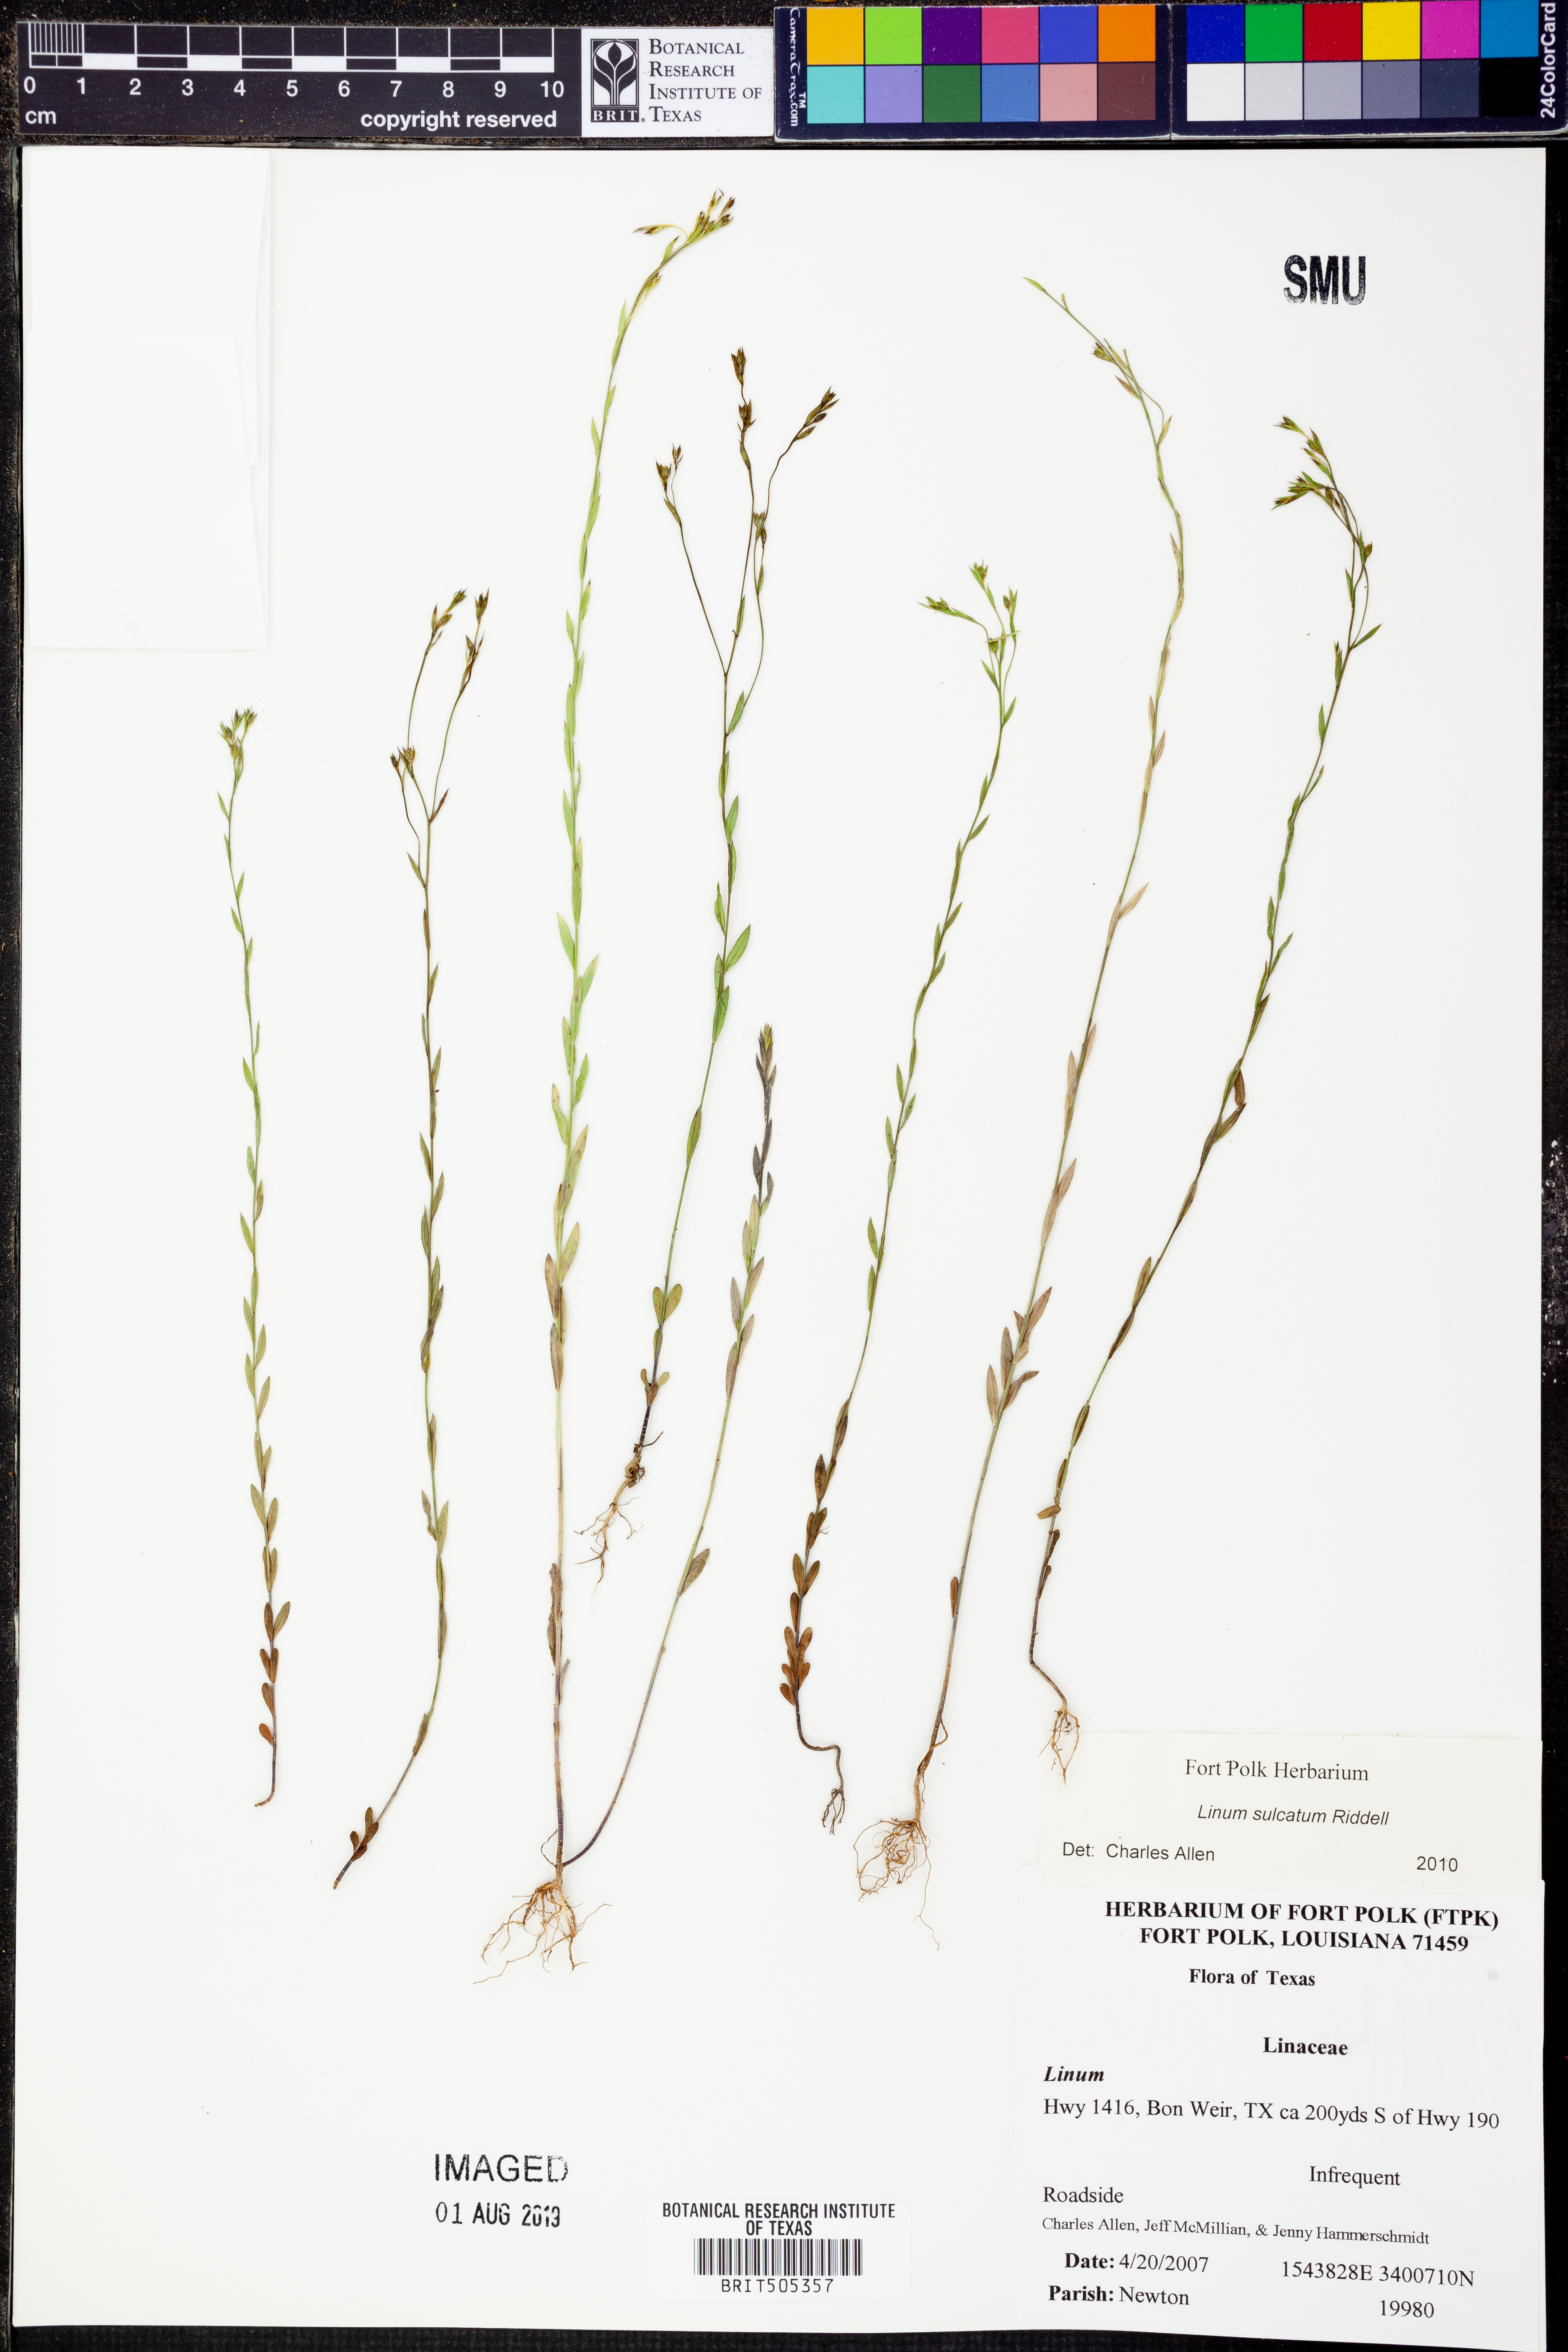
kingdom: Plantae
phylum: Tracheophyta
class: Magnoliopsida
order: Malpighiales
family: Linaceae
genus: Linum
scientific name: Linum sulcatum
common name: Grooved flax
